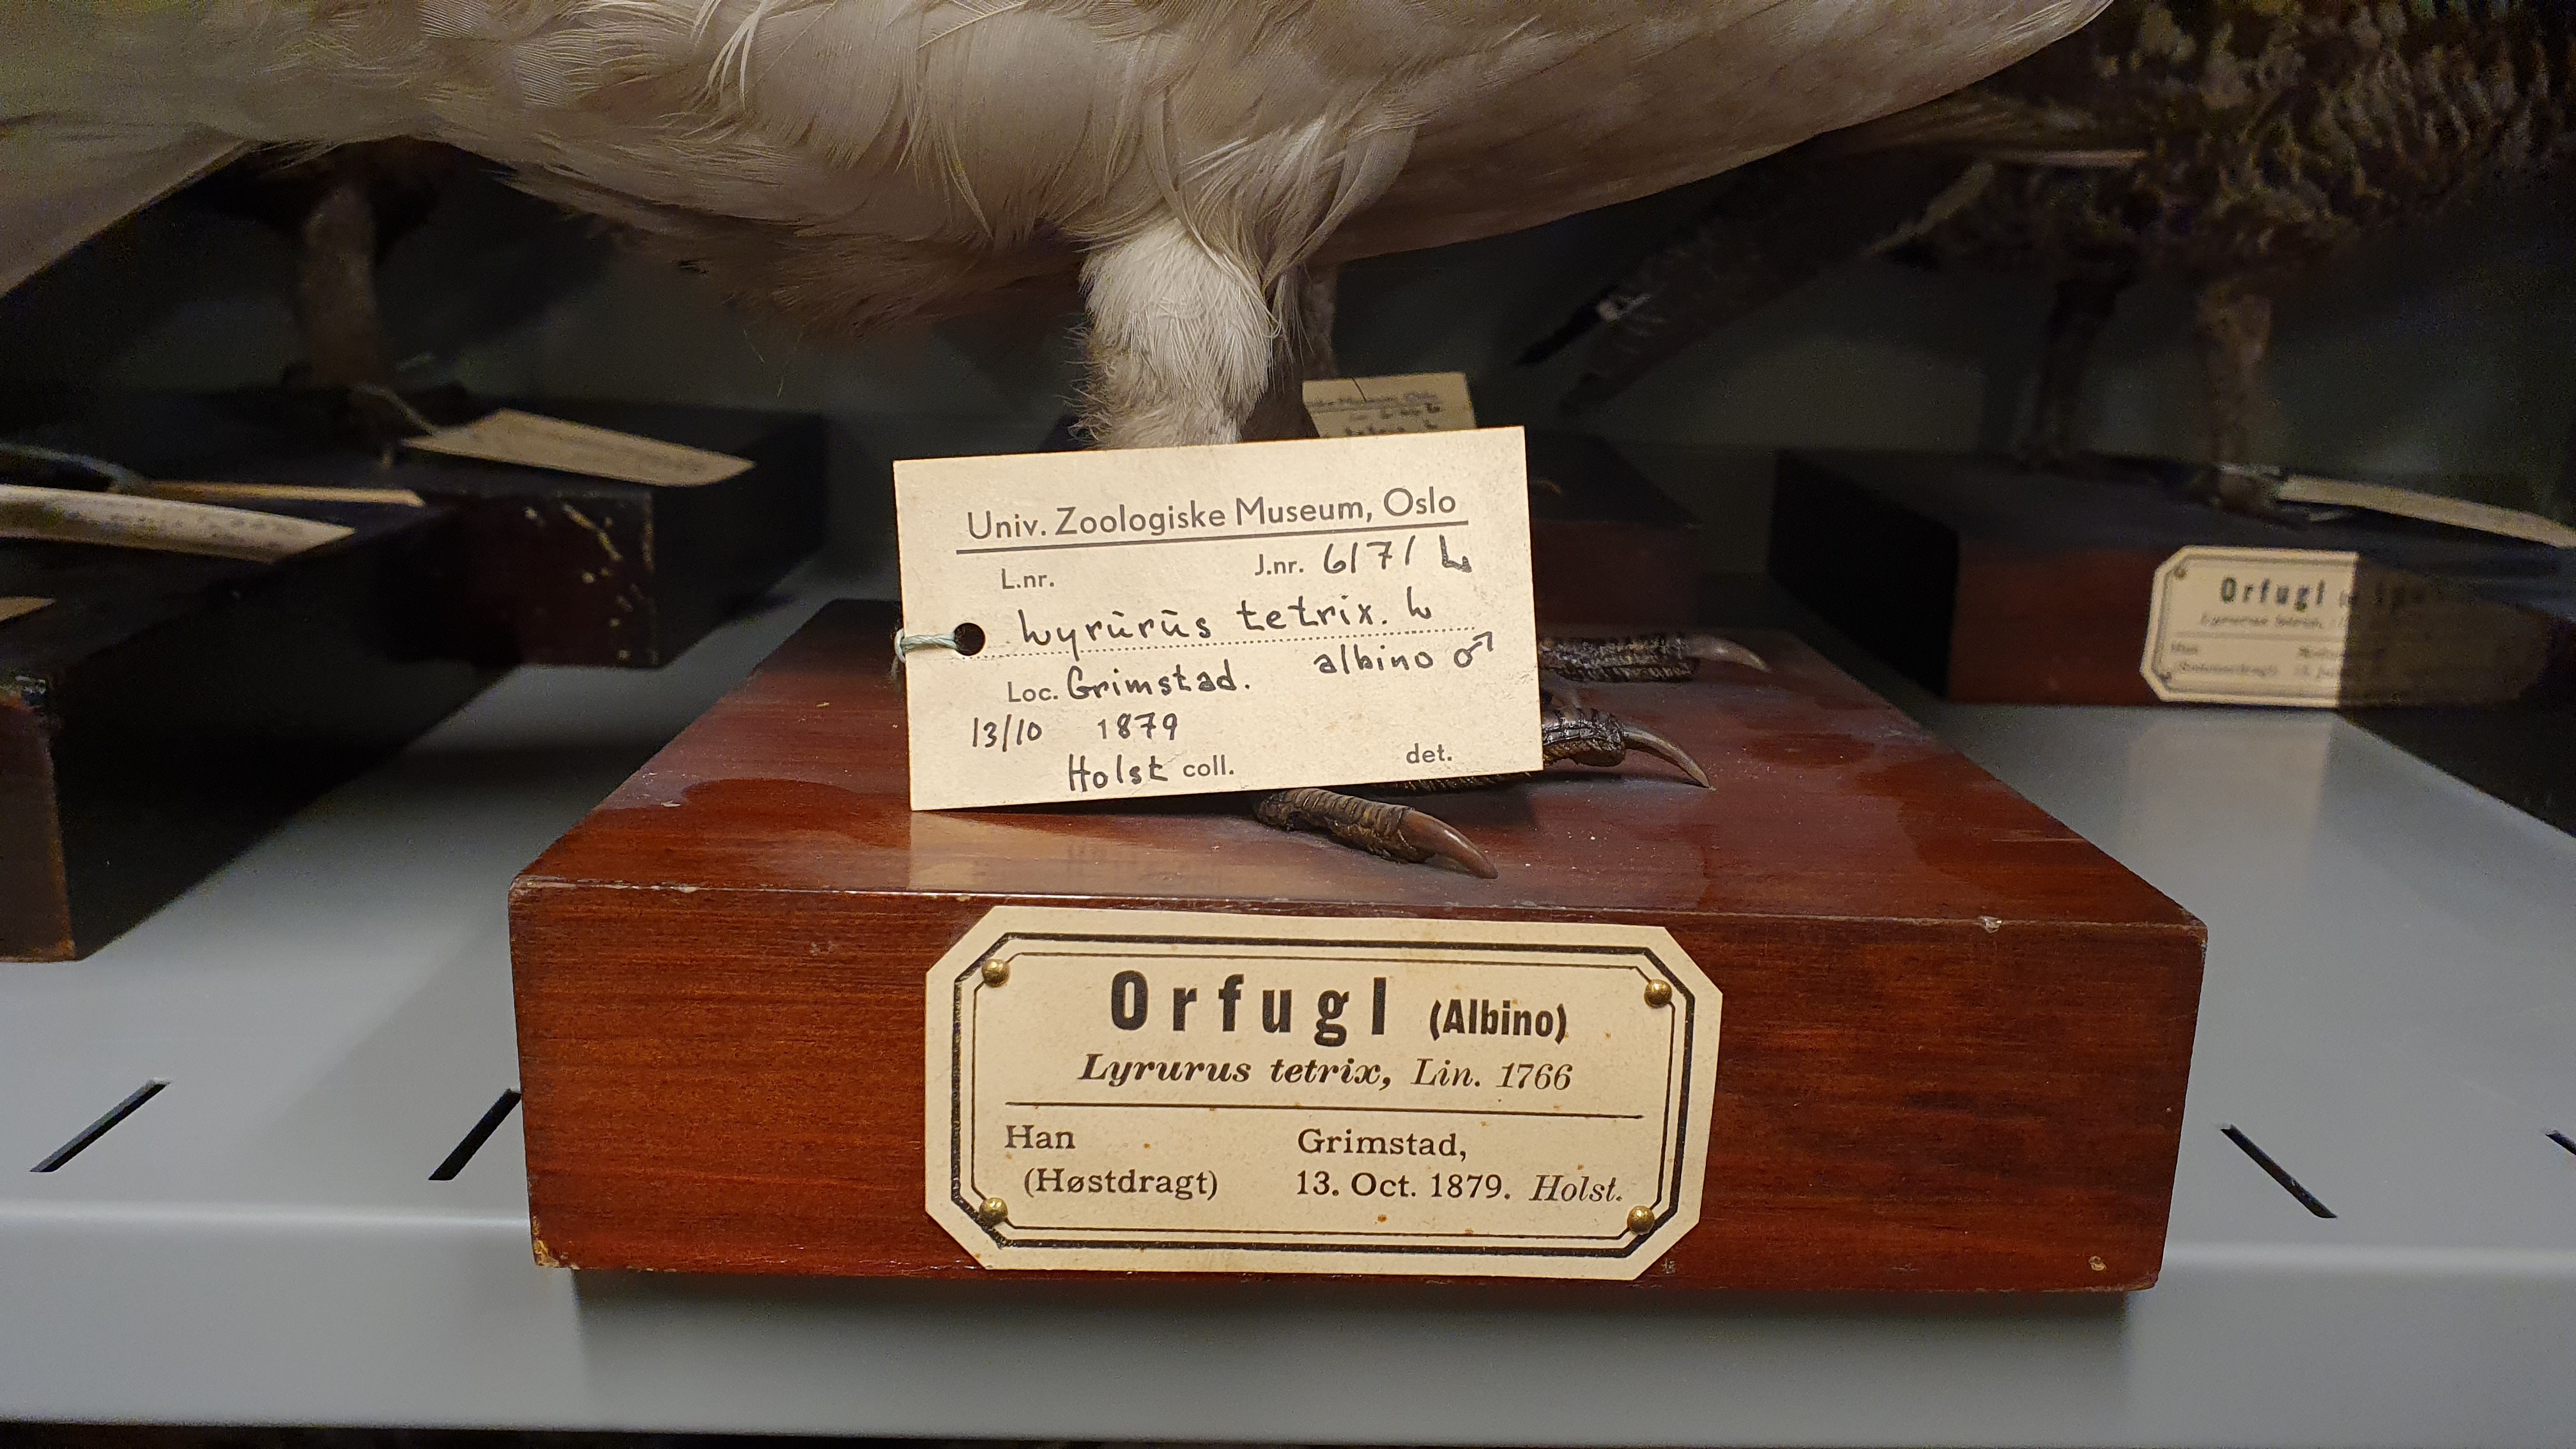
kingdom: Animalia
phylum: Chordata
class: Aves
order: Galliformes
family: Phasianidae
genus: Lyrurus
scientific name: Lyrurus tetrix
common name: Black grouse
